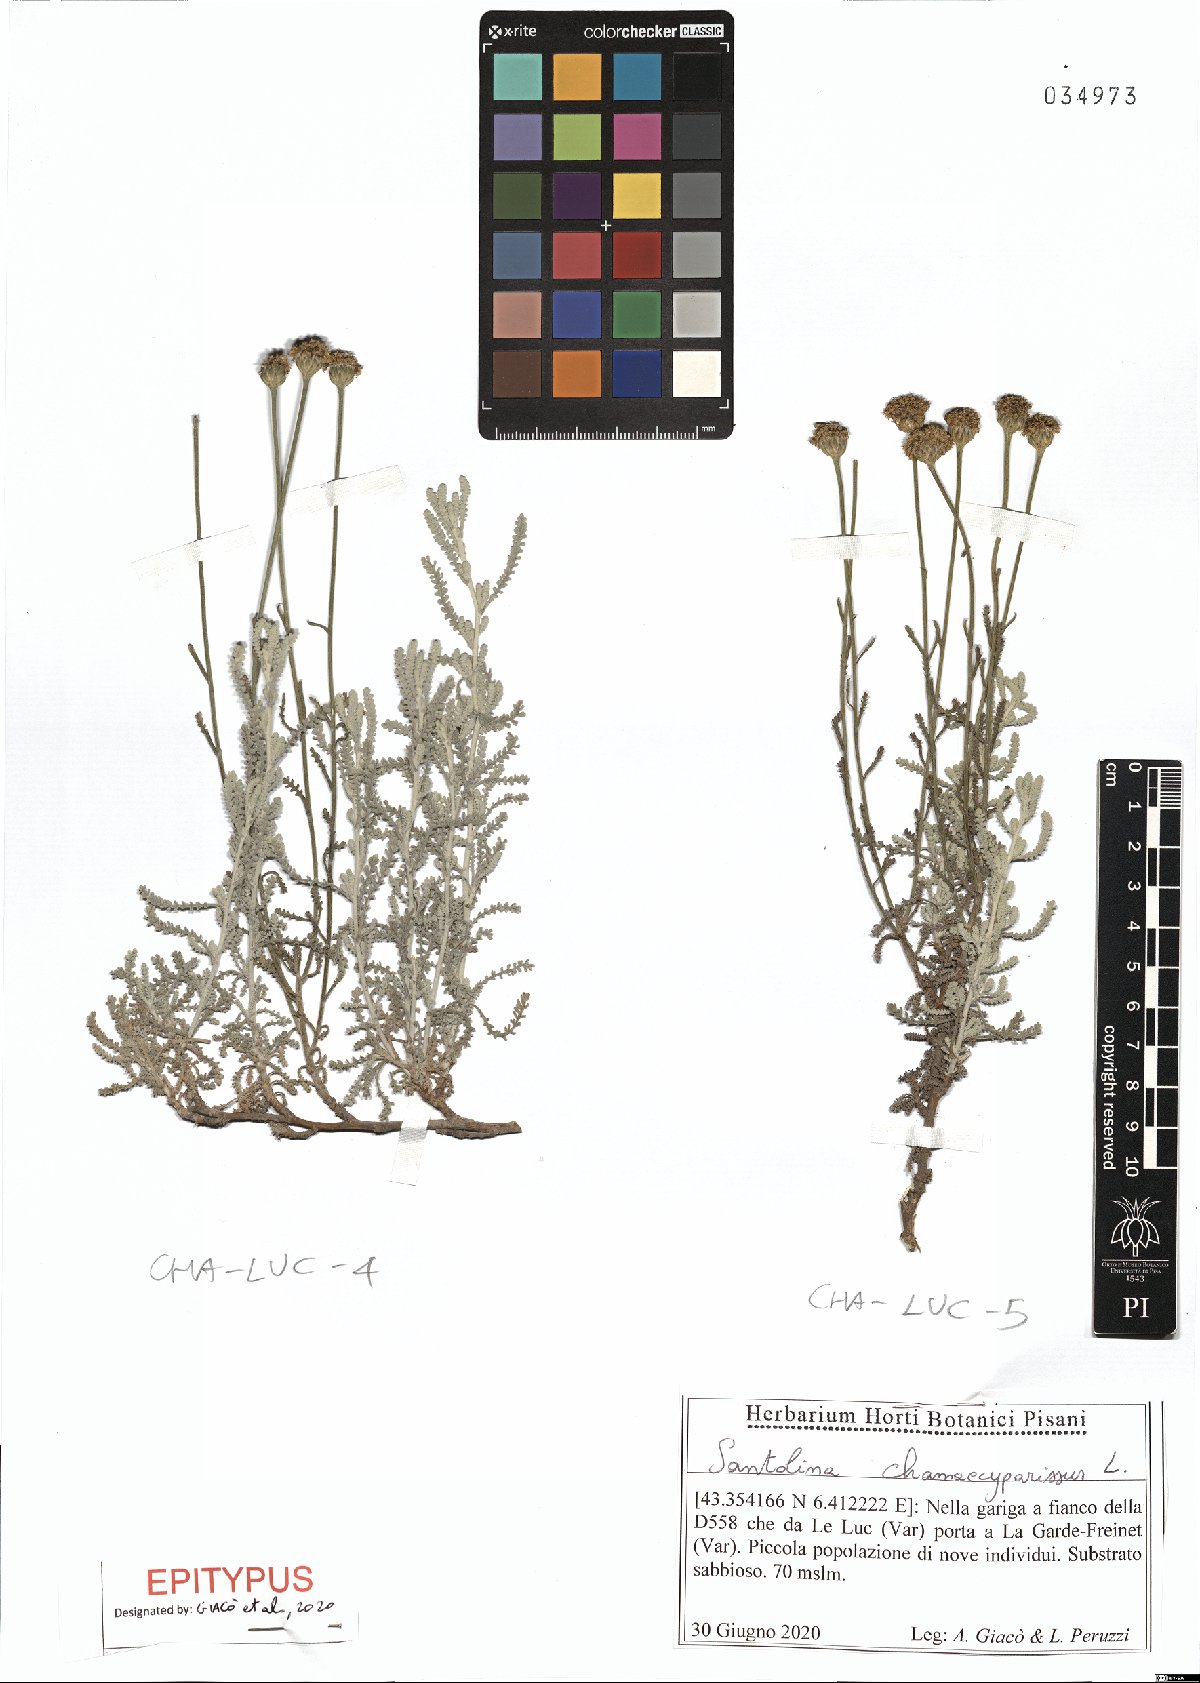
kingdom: Plantae
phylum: Tracheophyta
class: Magnoliopsida
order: Asterales
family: Asteraceae
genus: Santolina
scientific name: Santolina chamaecyparissus
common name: Lavender-cotton
